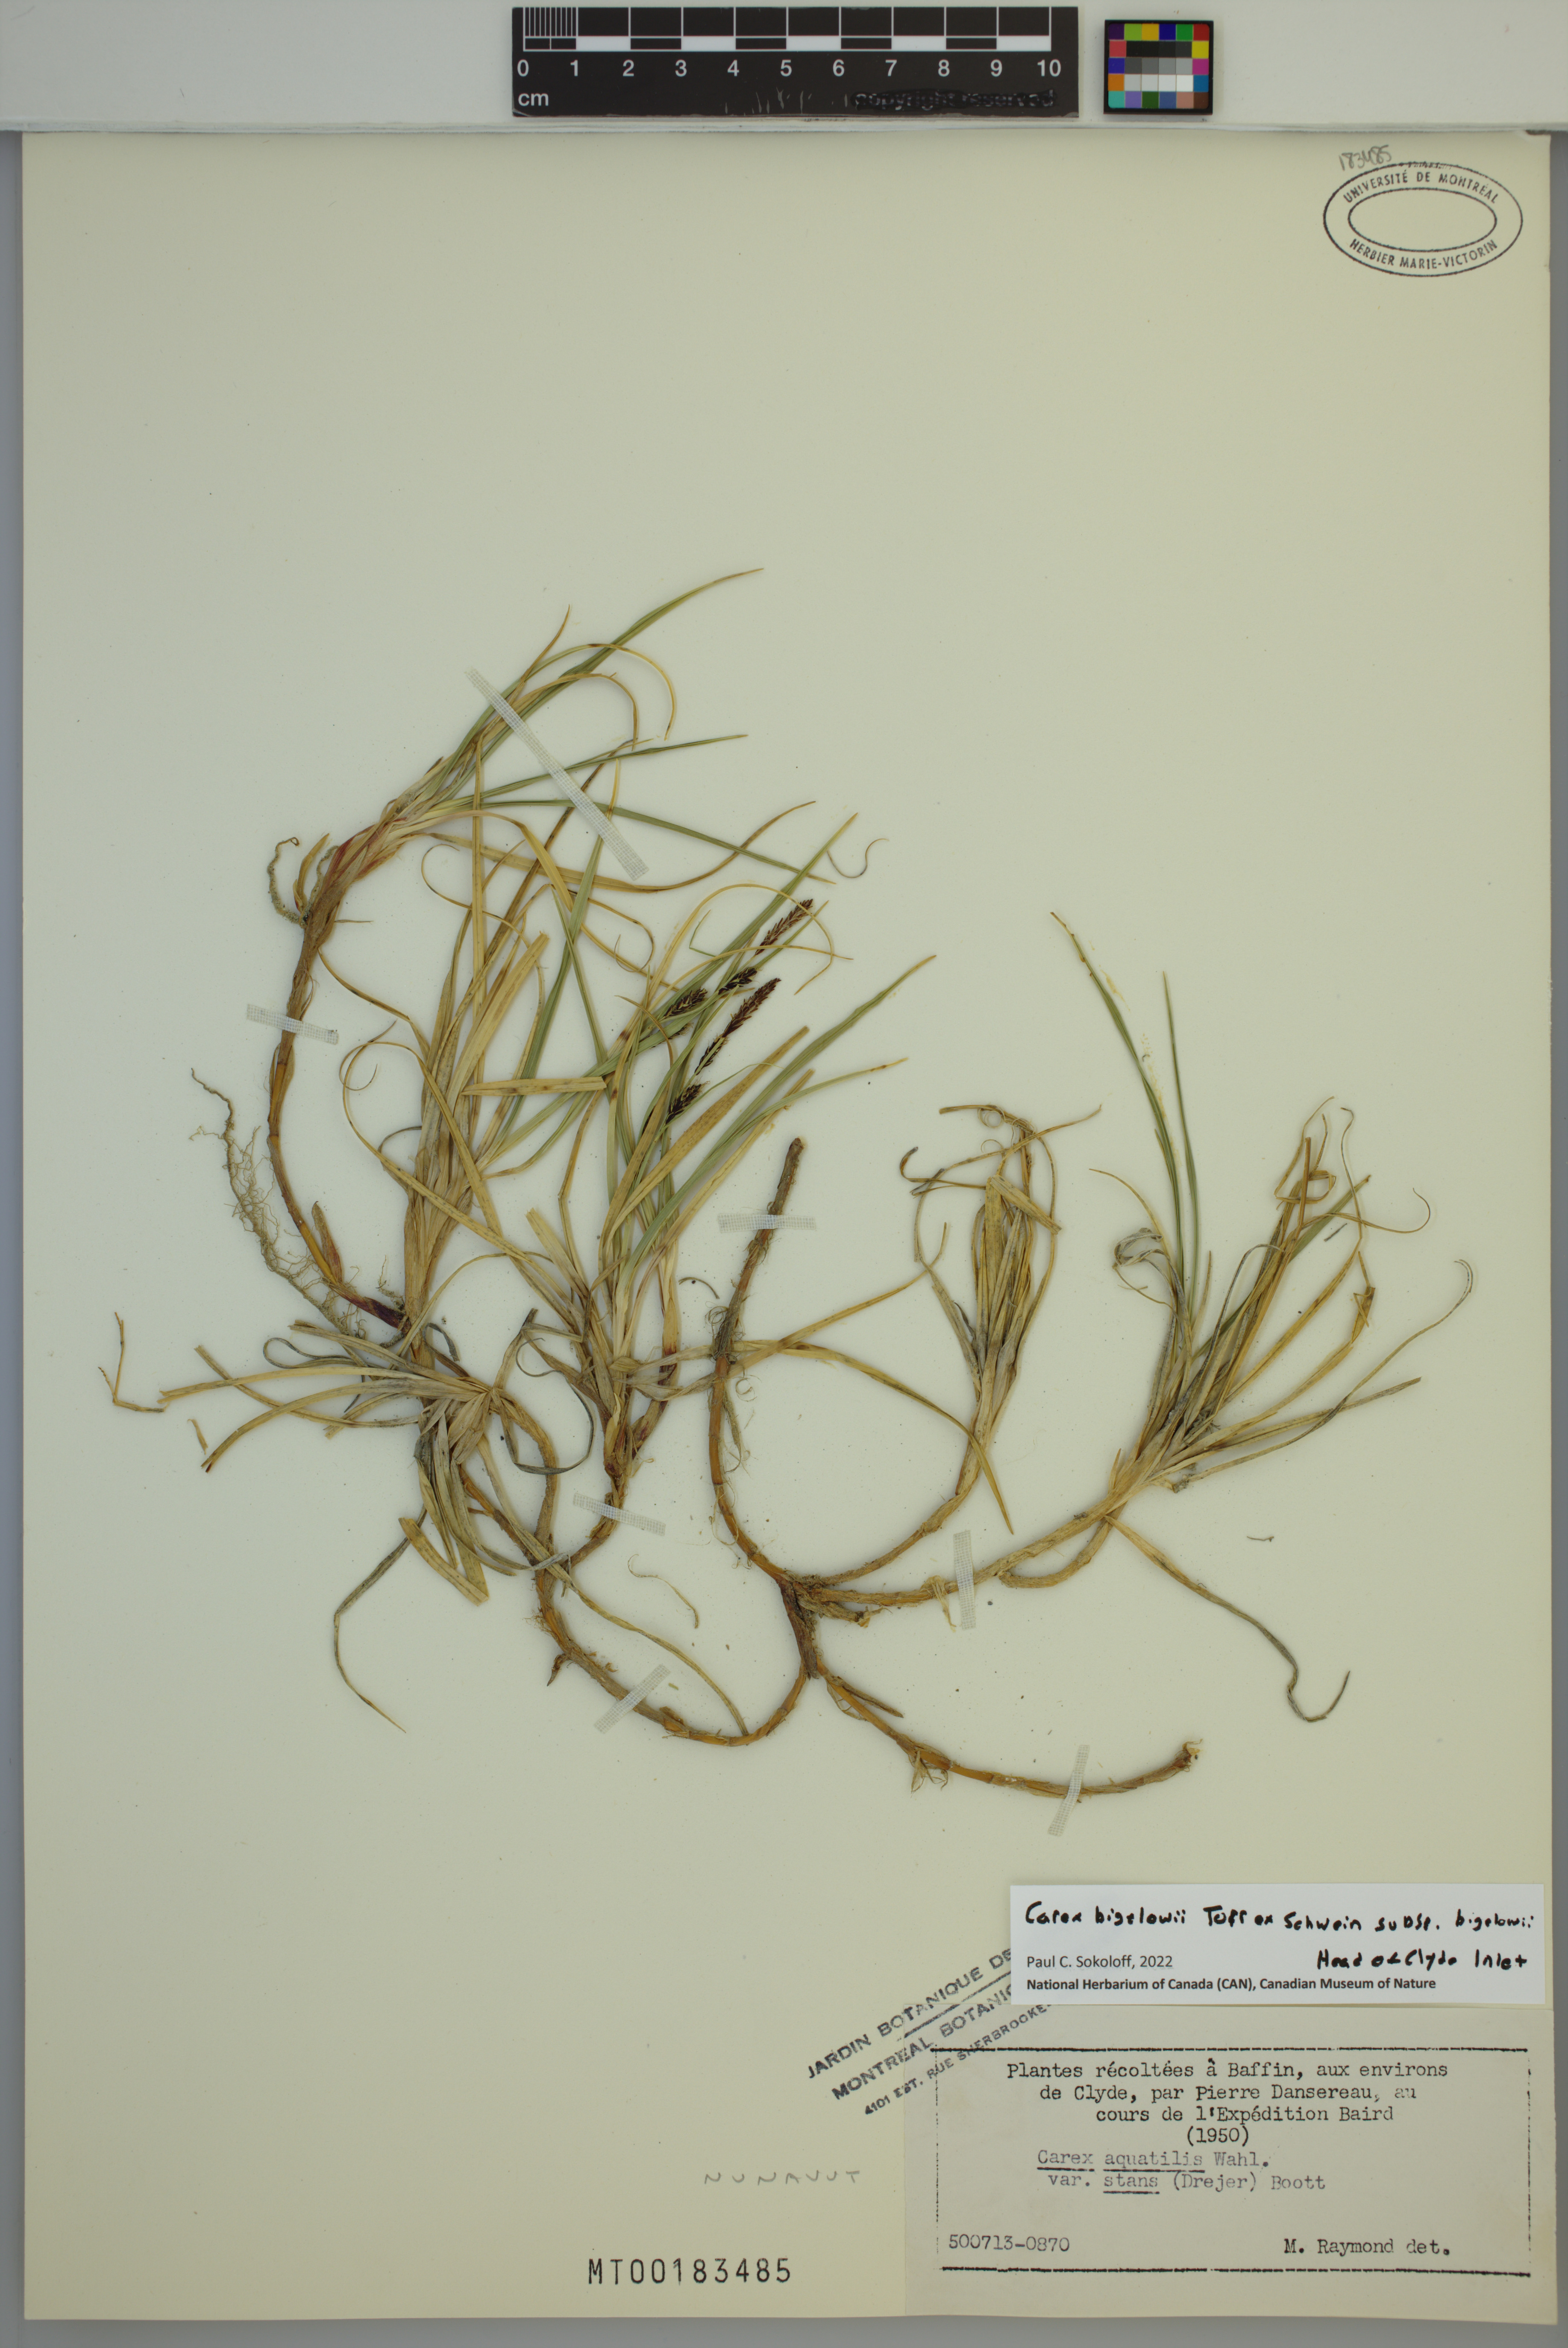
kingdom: Plantae
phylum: Tracheophyta
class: Liliopsida
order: Poales
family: Cyperaceae
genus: Carex
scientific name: Carex bigelowii
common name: Stiff sedge
